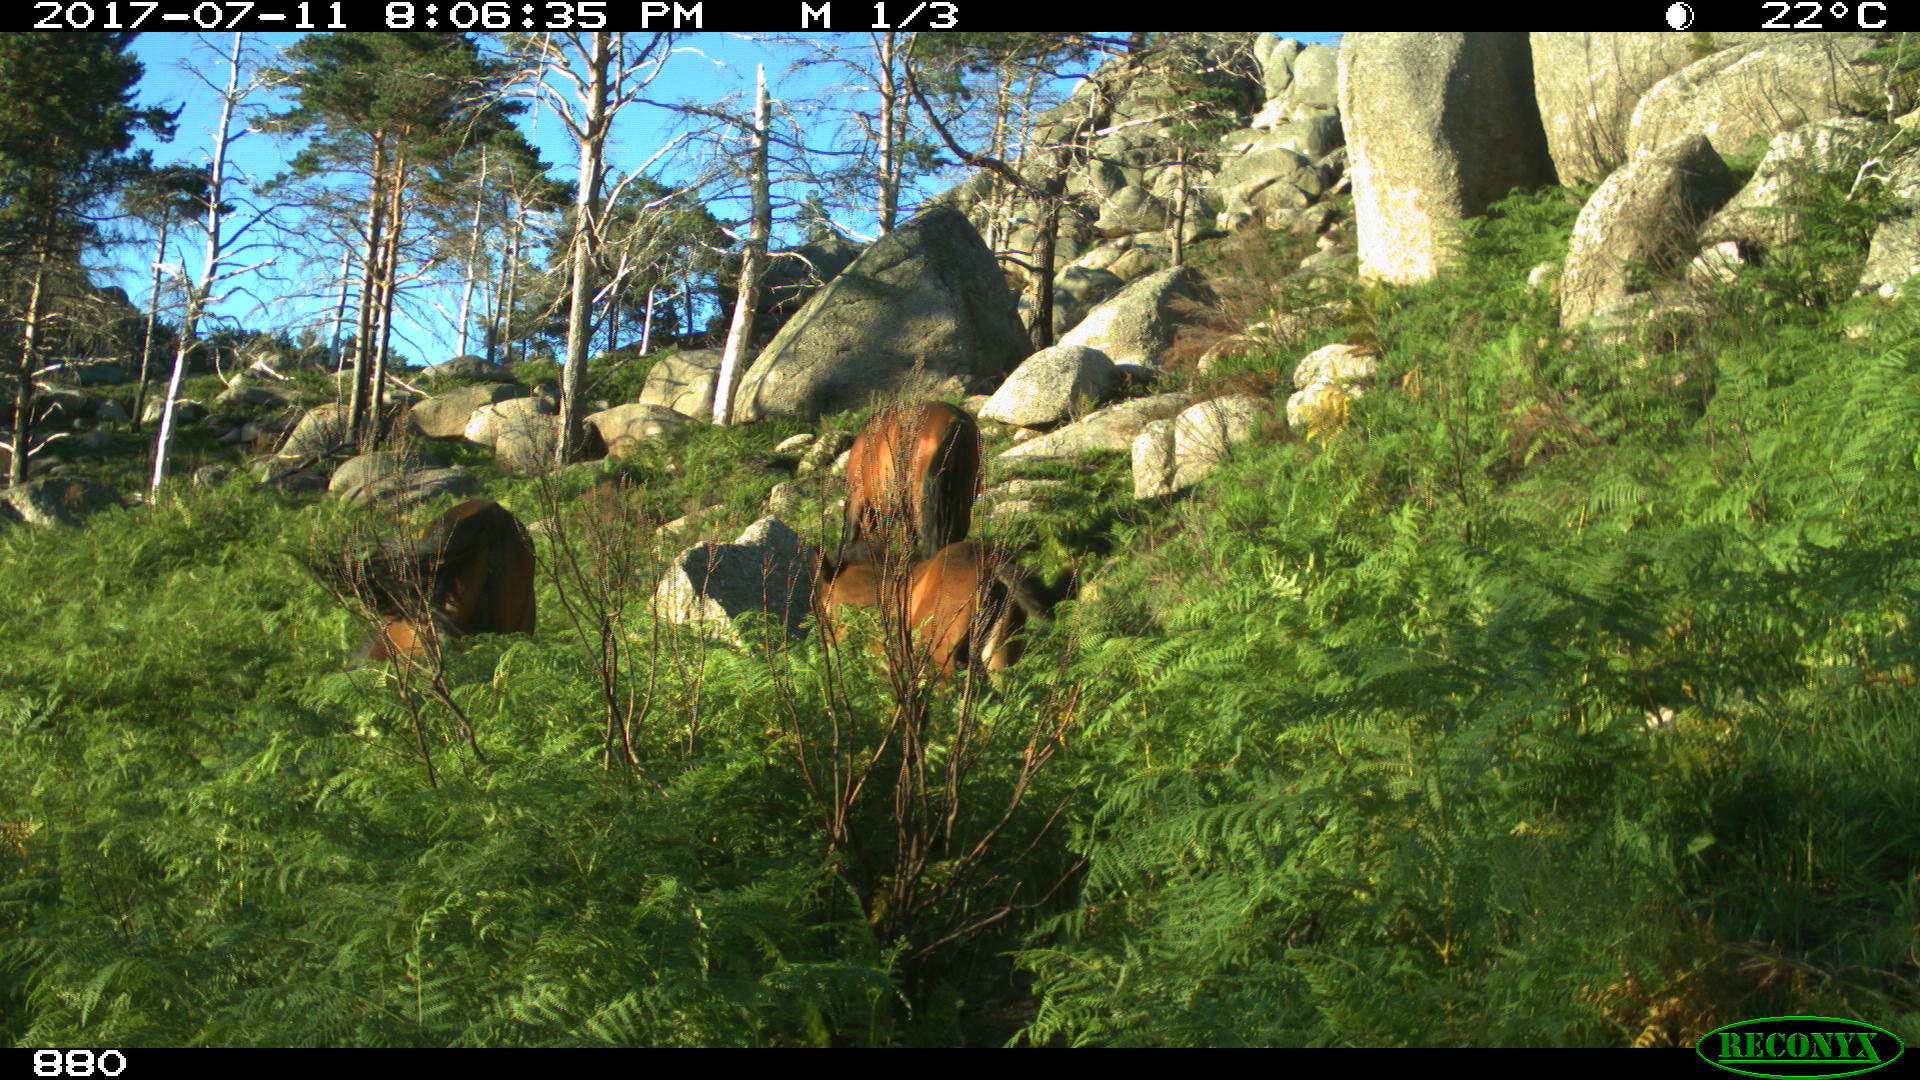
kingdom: Animalia
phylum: Chordata
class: Mammalia
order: Perissodactyla
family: Equidae
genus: Equus
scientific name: Equus caballus
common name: Horse
